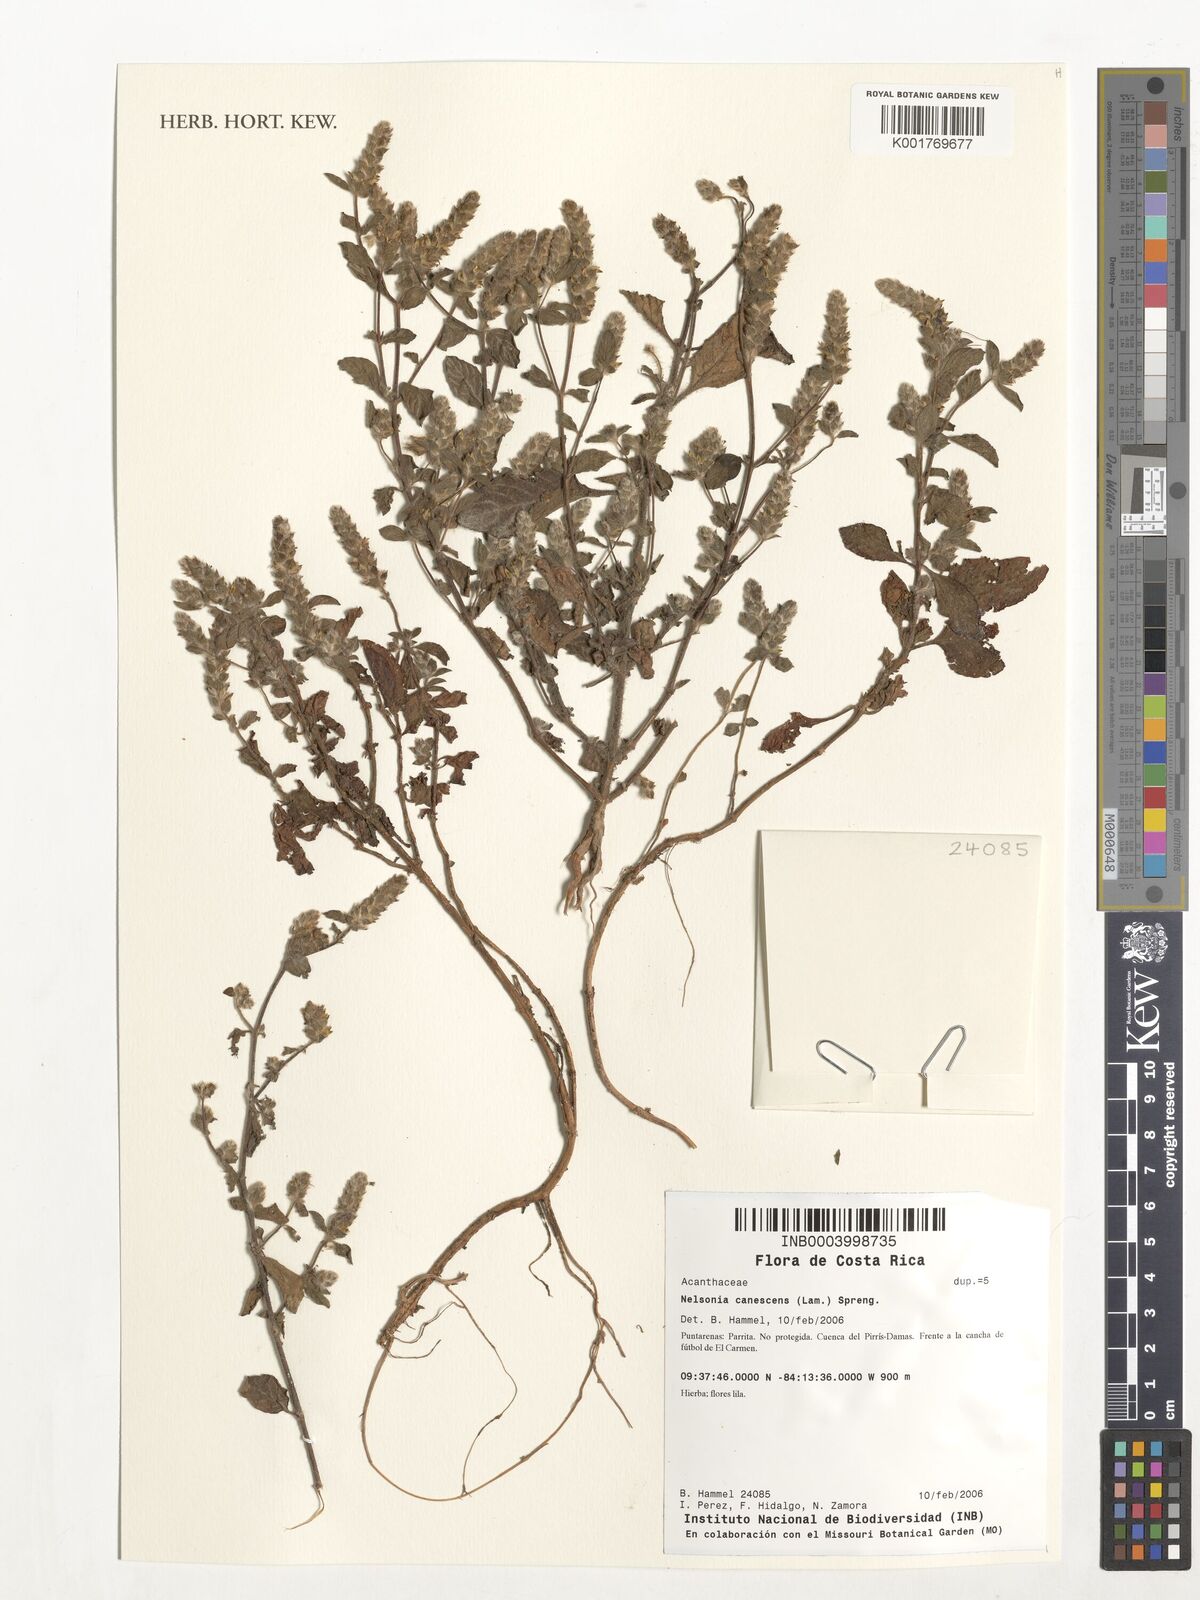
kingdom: Plantae
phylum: Tracheophyta
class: Magnoliopsida
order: Lamiales
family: Acanthaceae
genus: Nelsonia
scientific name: Nelsonia canescens
